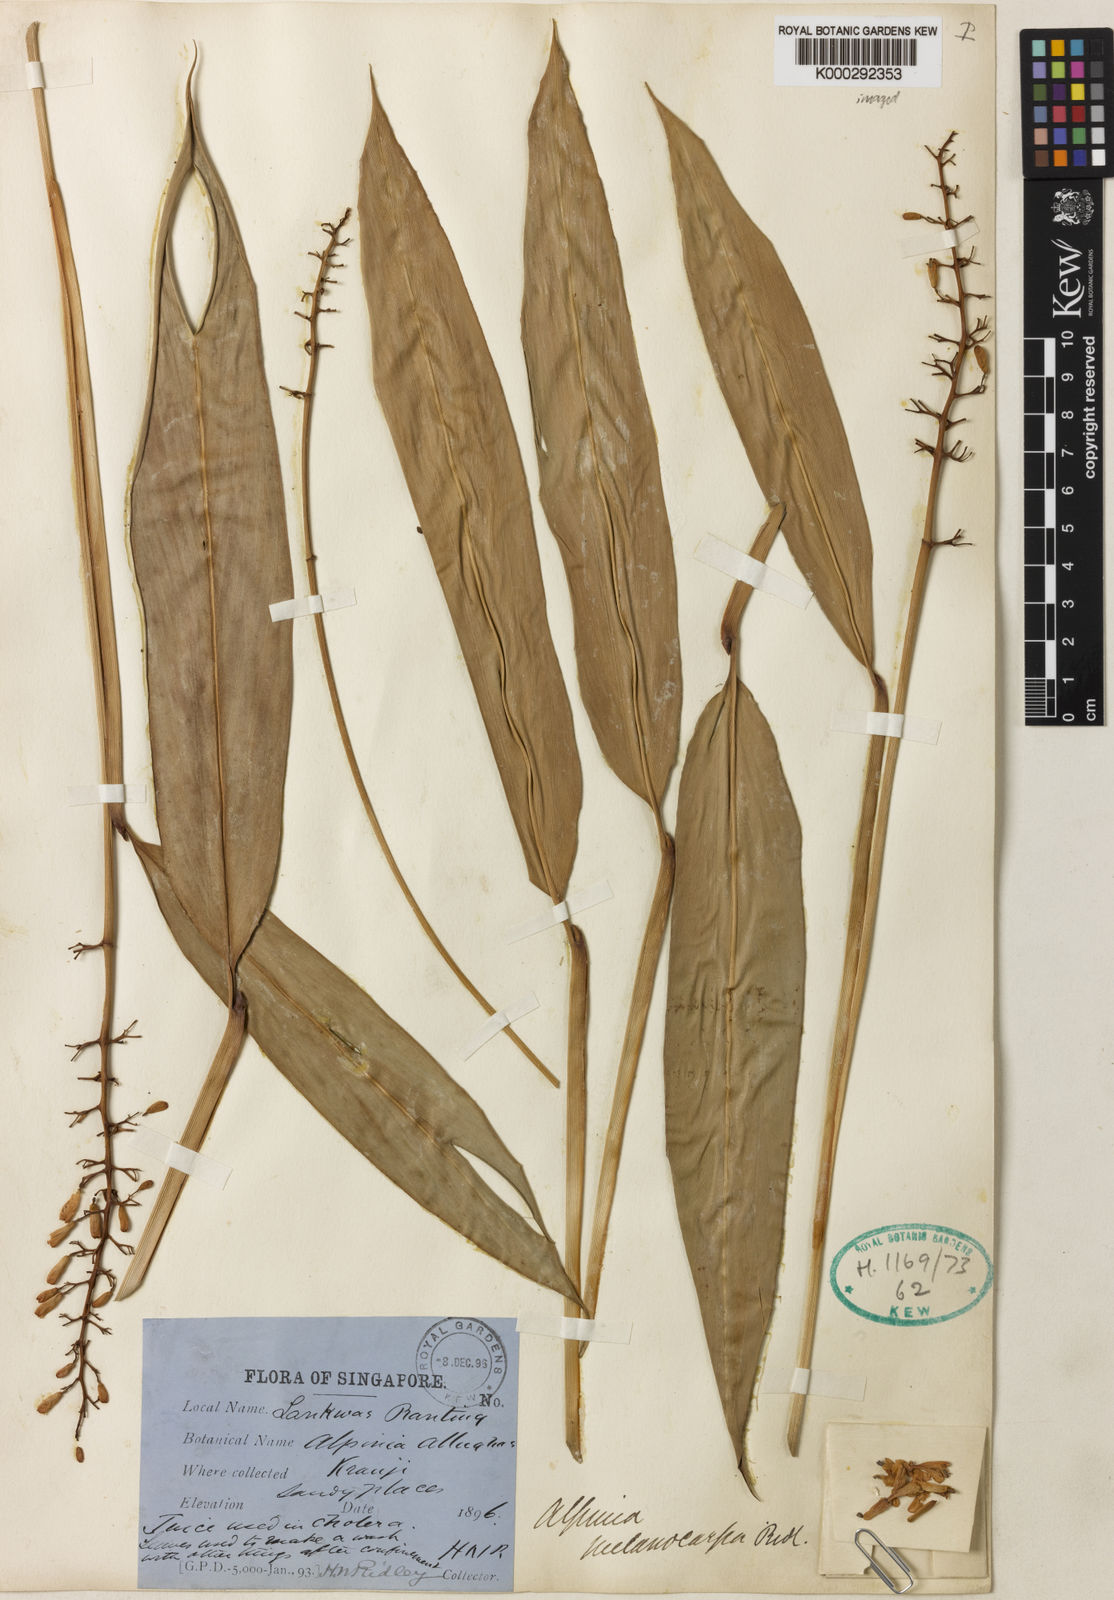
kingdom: Plantae
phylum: Tracheophyta
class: Liliopsida
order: Zingiberales
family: Zingiberaceae
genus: Alpinia
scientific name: Alpinia aquatica
